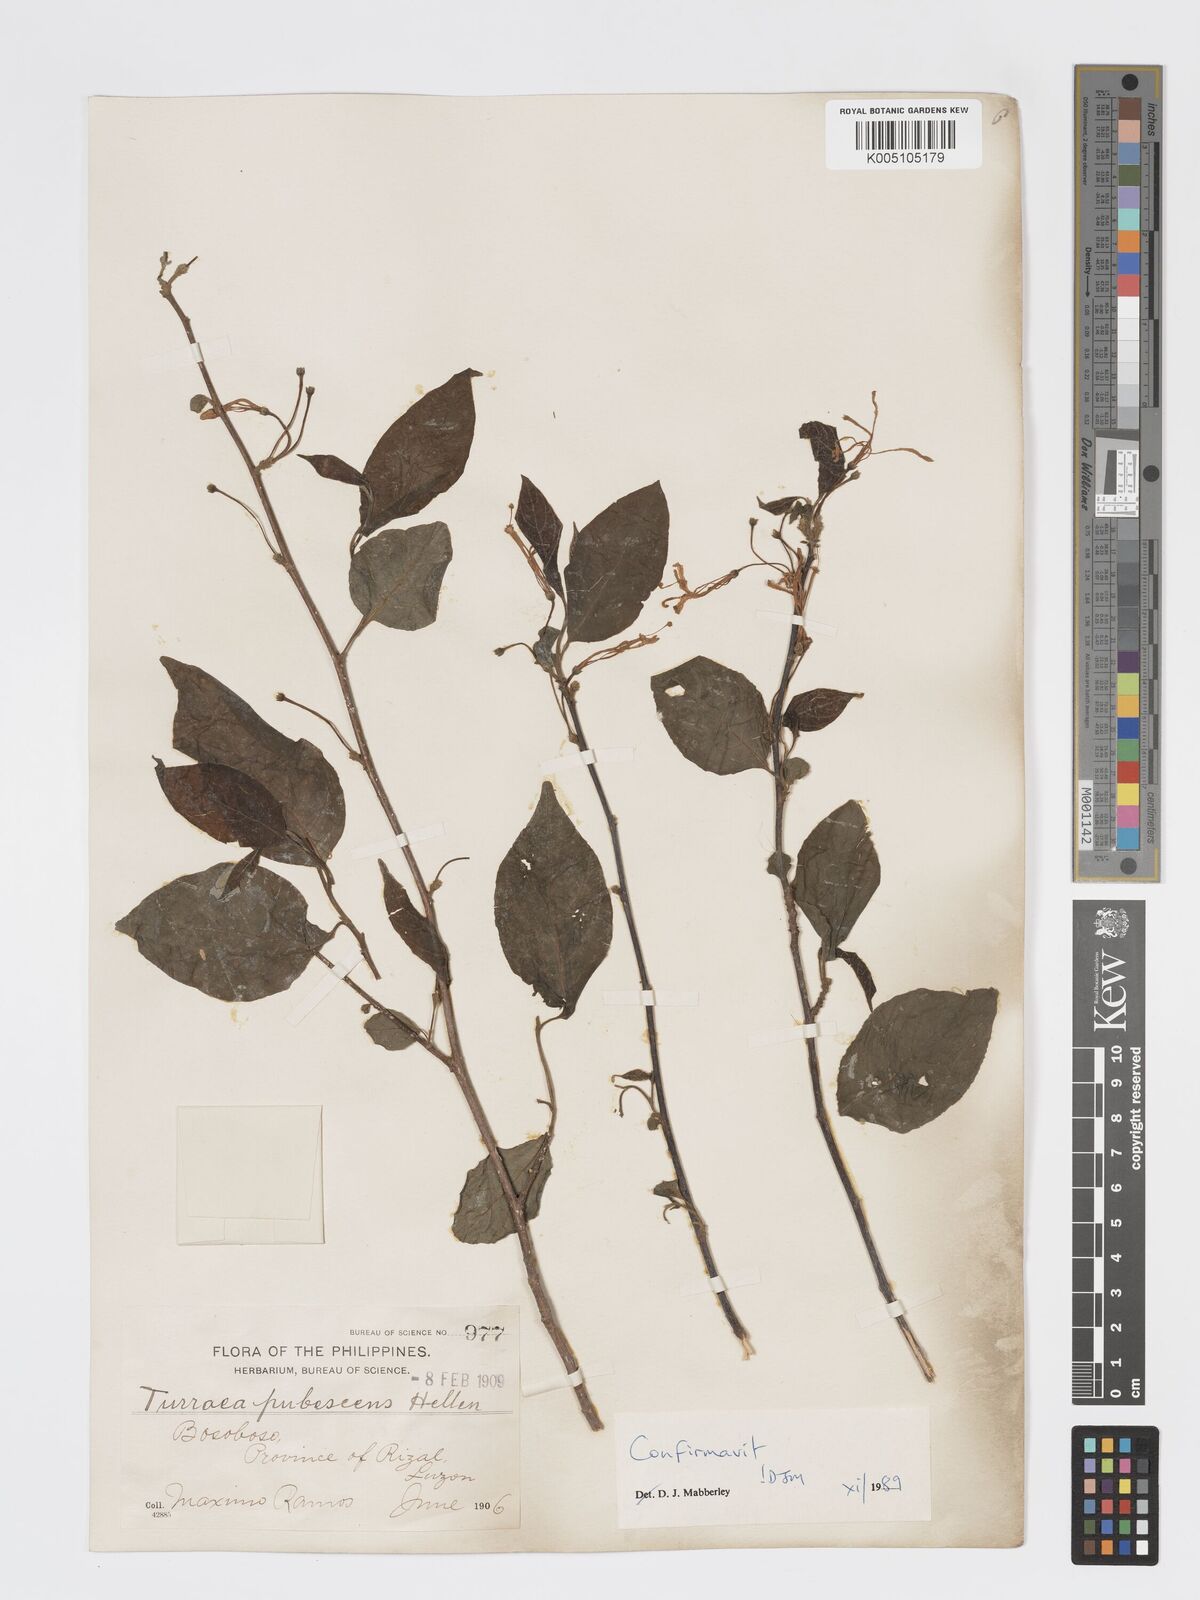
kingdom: Plantae
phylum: Tracheophyta
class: Magnoliopsida
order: Sapindales
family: Meliaceae
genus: Turraea
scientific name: Turraea
